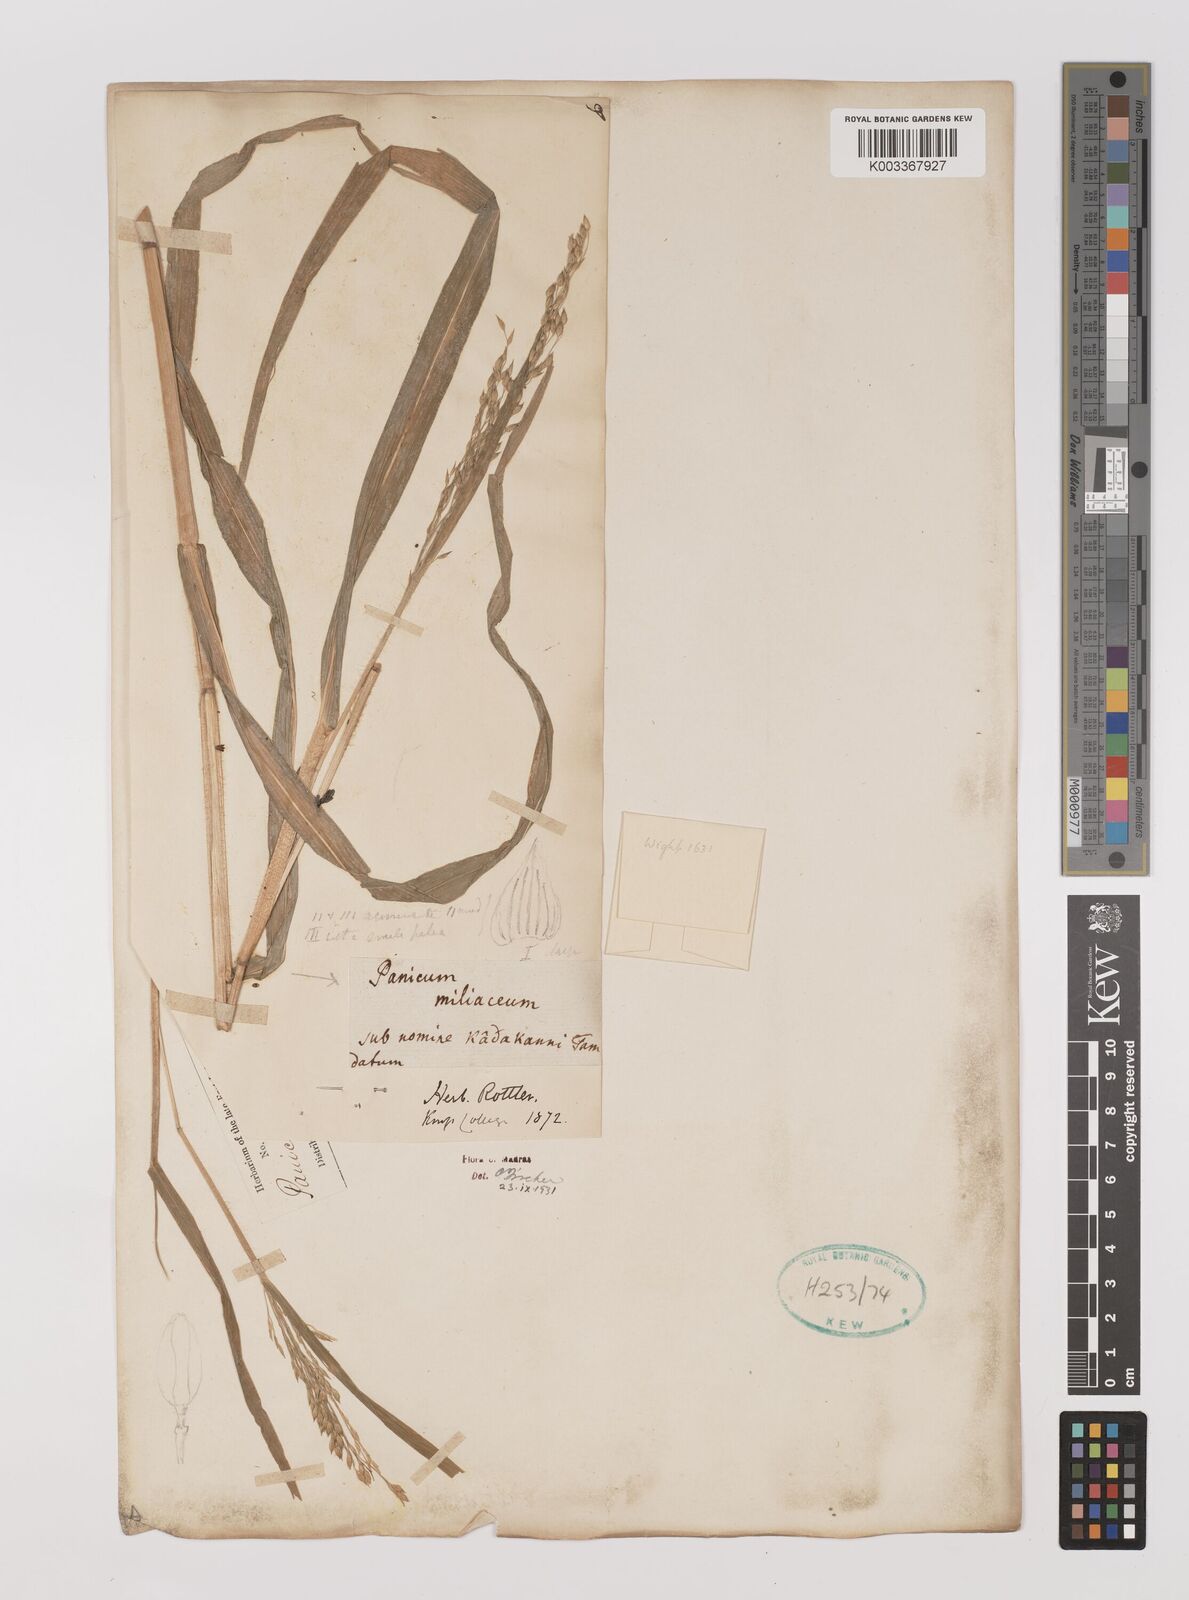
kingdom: Plantae
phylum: Tracheophyta
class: Liliopsida
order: Poales
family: Poaceae
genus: Panicum
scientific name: Panicum miliaceum
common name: Common millet
